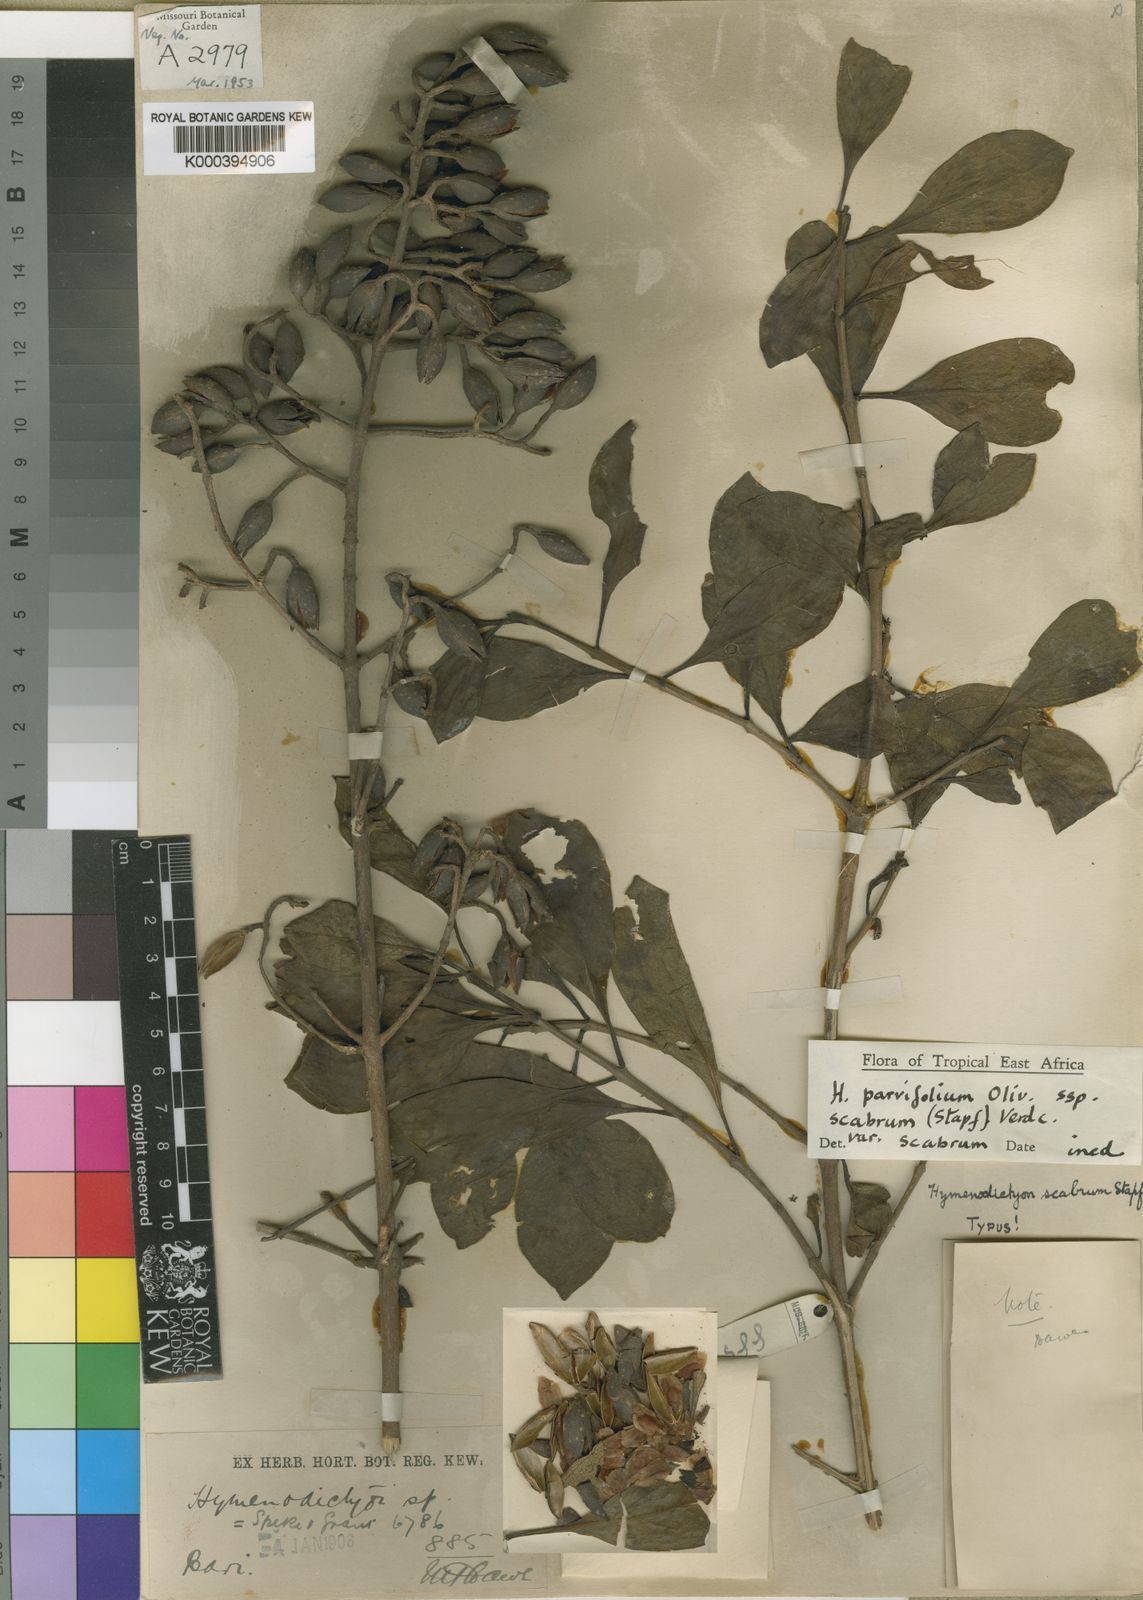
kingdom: Plantae
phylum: Tracheophyta
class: Magnoliopsida
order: Gentianales
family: Rubiaceae
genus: Hymenodictyon
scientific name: Hymenodictyon scabrum
